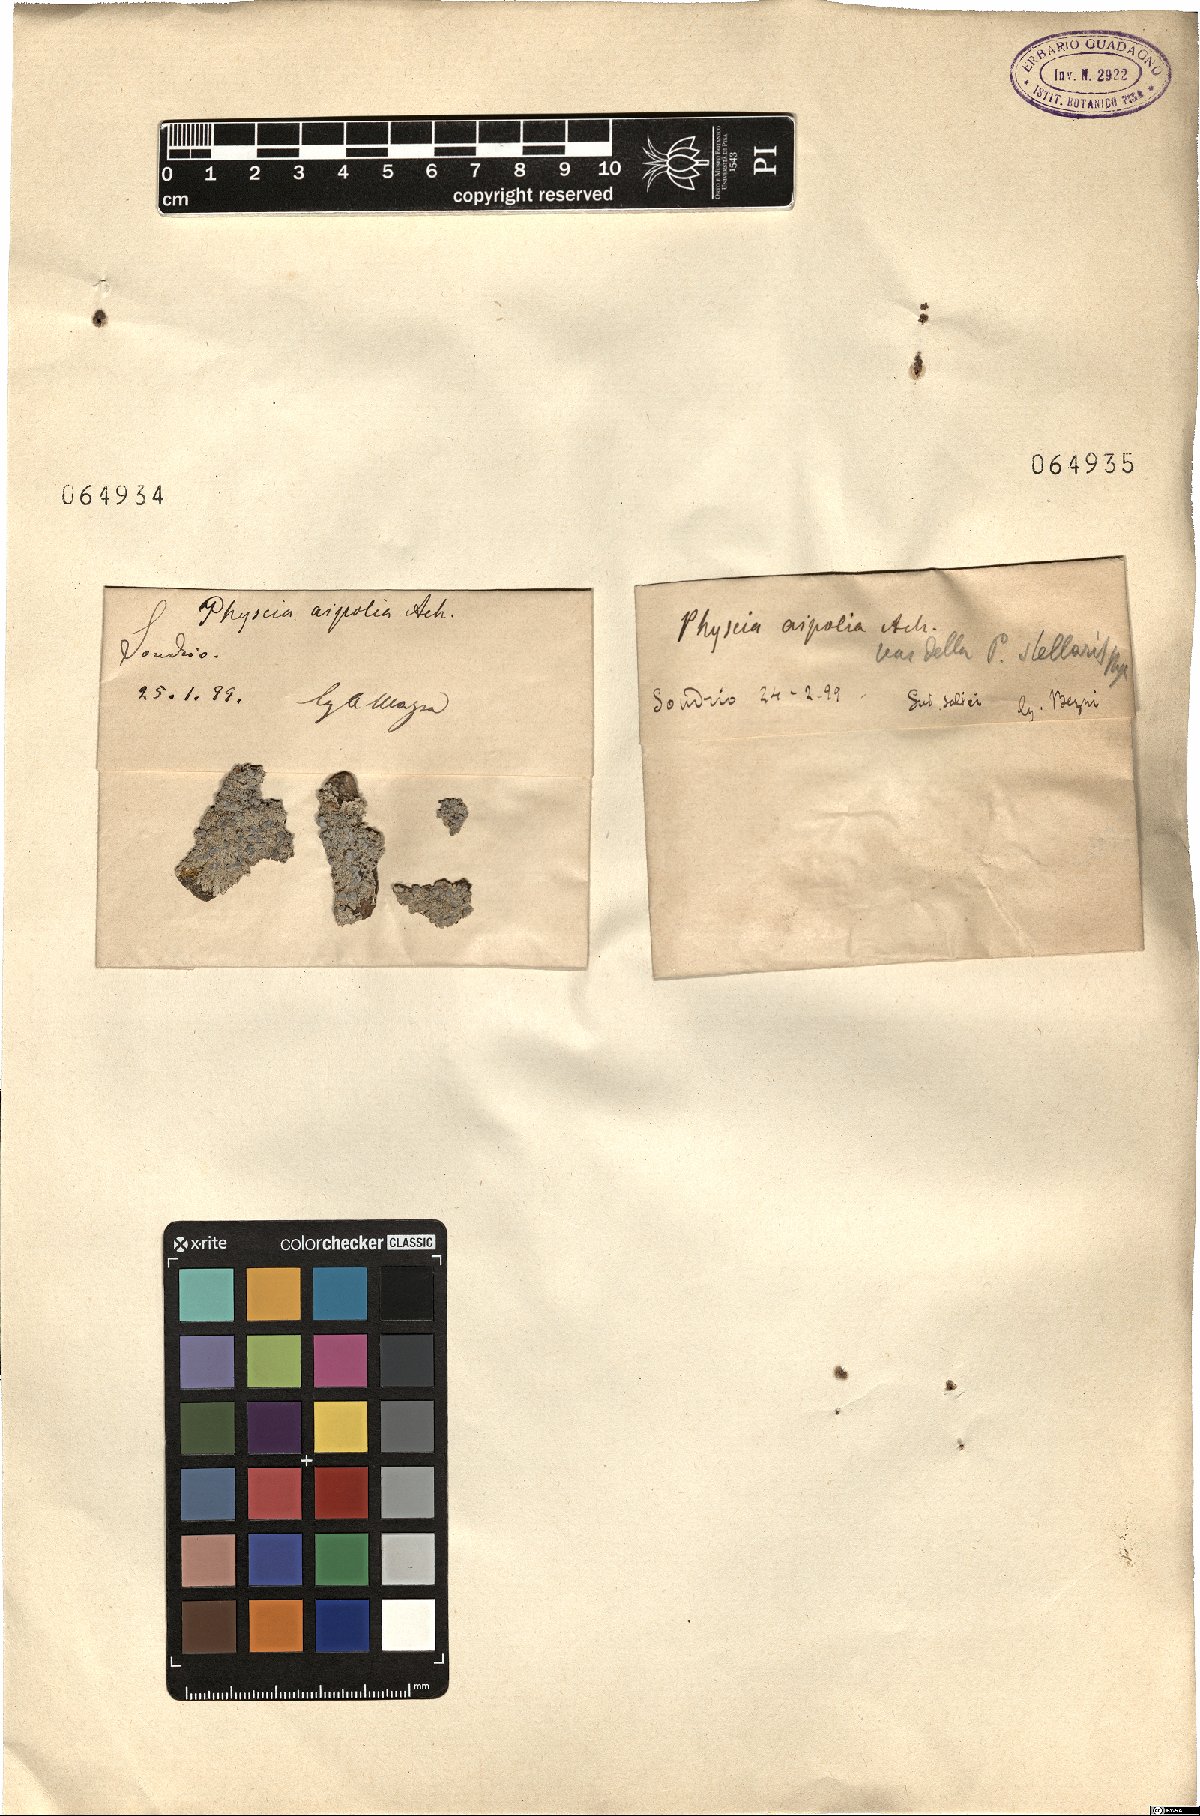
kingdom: Fungi
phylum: Ascomycota
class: Lecanoromycetes
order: Caliciales
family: Physciaceae
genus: Physcia
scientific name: Physcia aipolia
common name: Hoary rosette lichen
